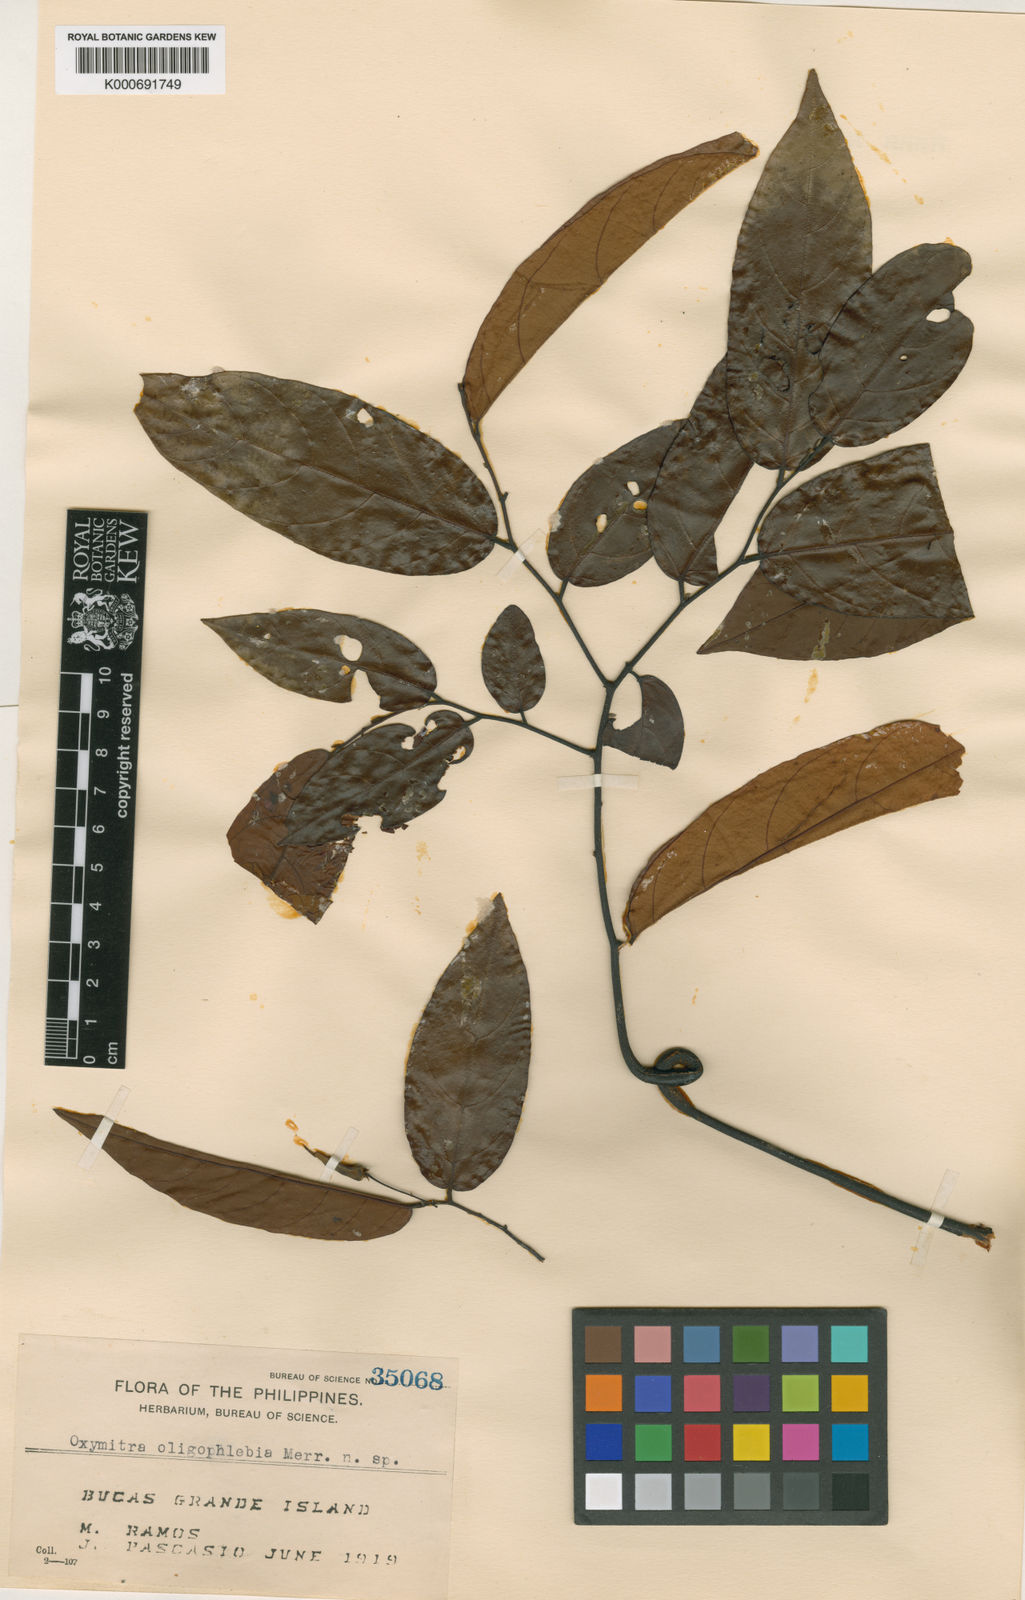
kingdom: Plantae
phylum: Tracheophyta
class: Magnoliopsida
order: Magnoliales
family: Annonaceae
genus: Friesodielsia
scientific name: Friesodielsia oligophlebia
